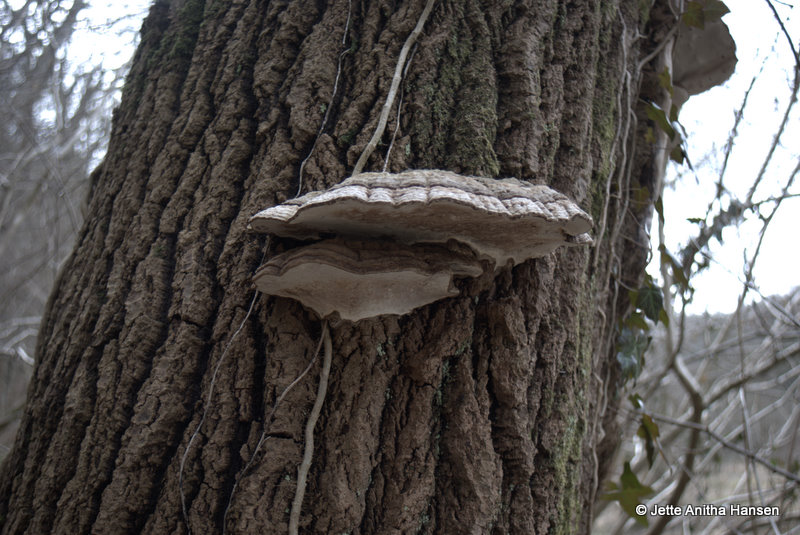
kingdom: Fungi
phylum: Basidiomycota
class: Agaricomycetes
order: Polyporales
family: Polyporaceae
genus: Ganoderma
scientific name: Ganoderma applanatum
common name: flad lakporesvamp
